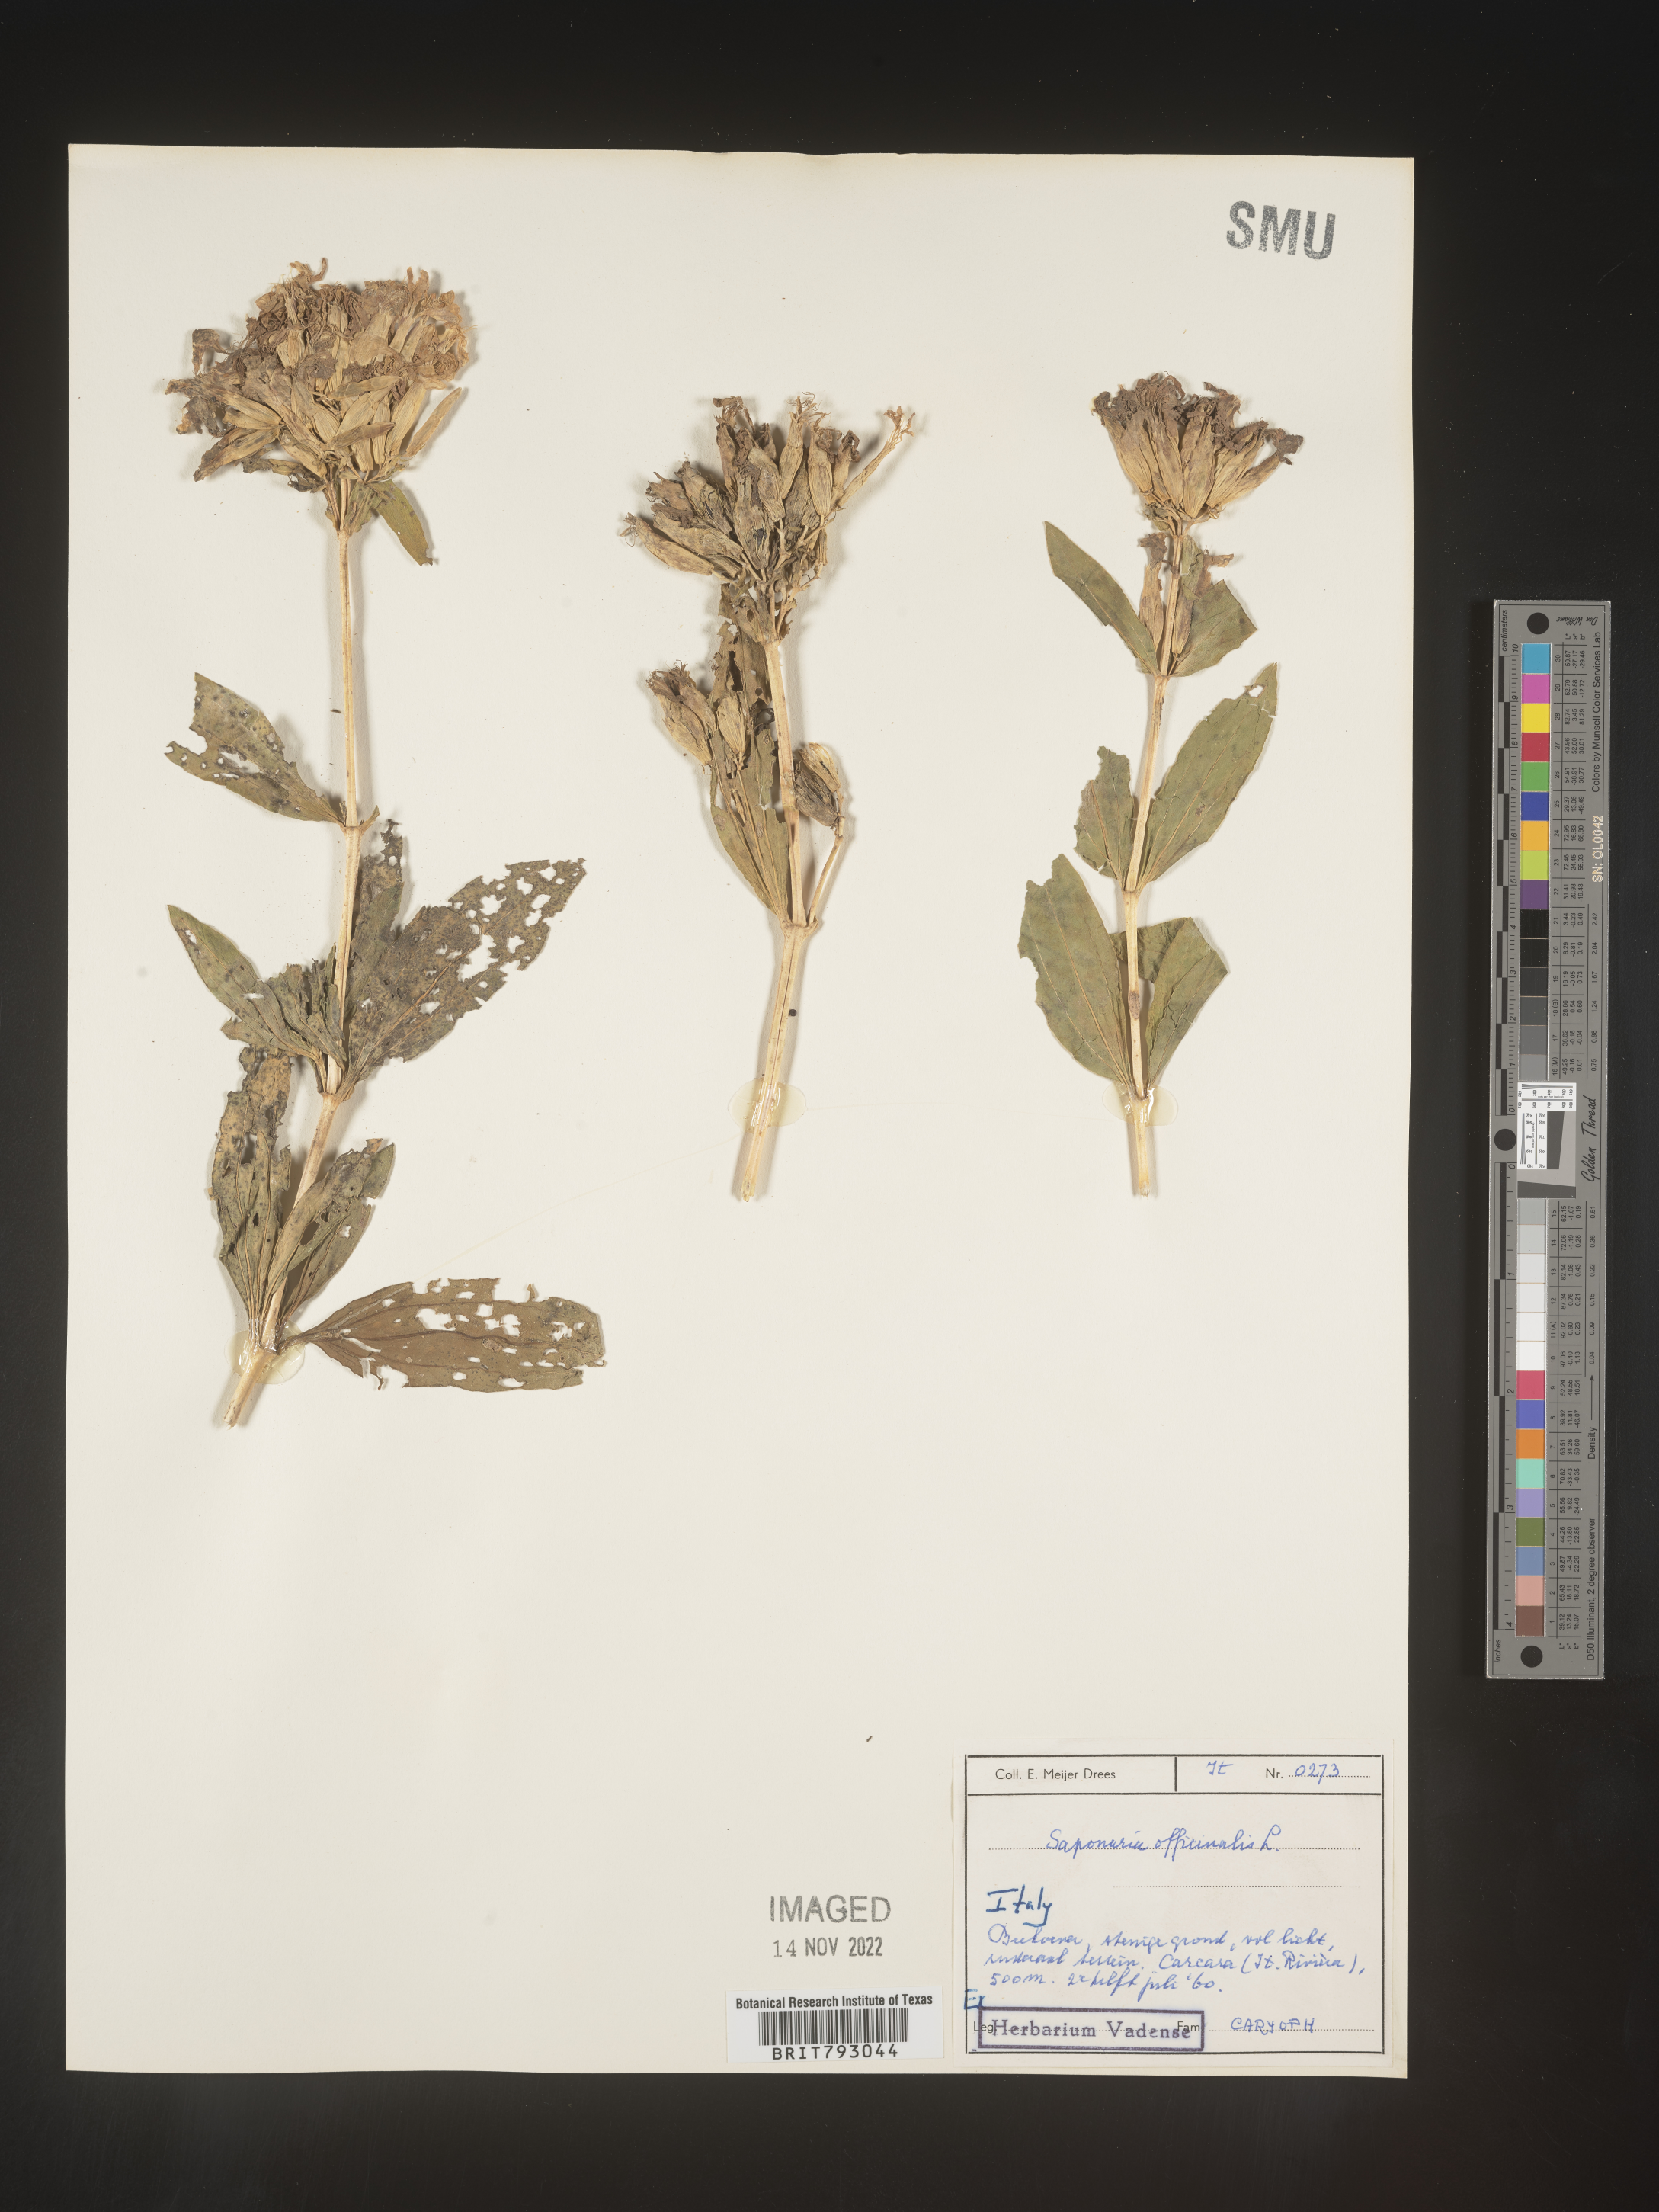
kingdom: Plantae
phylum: Tracheophyta
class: Magnoliopsida
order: Caryophyllales
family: Caryophyllaceae
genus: Saponaria
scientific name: Saponaria
